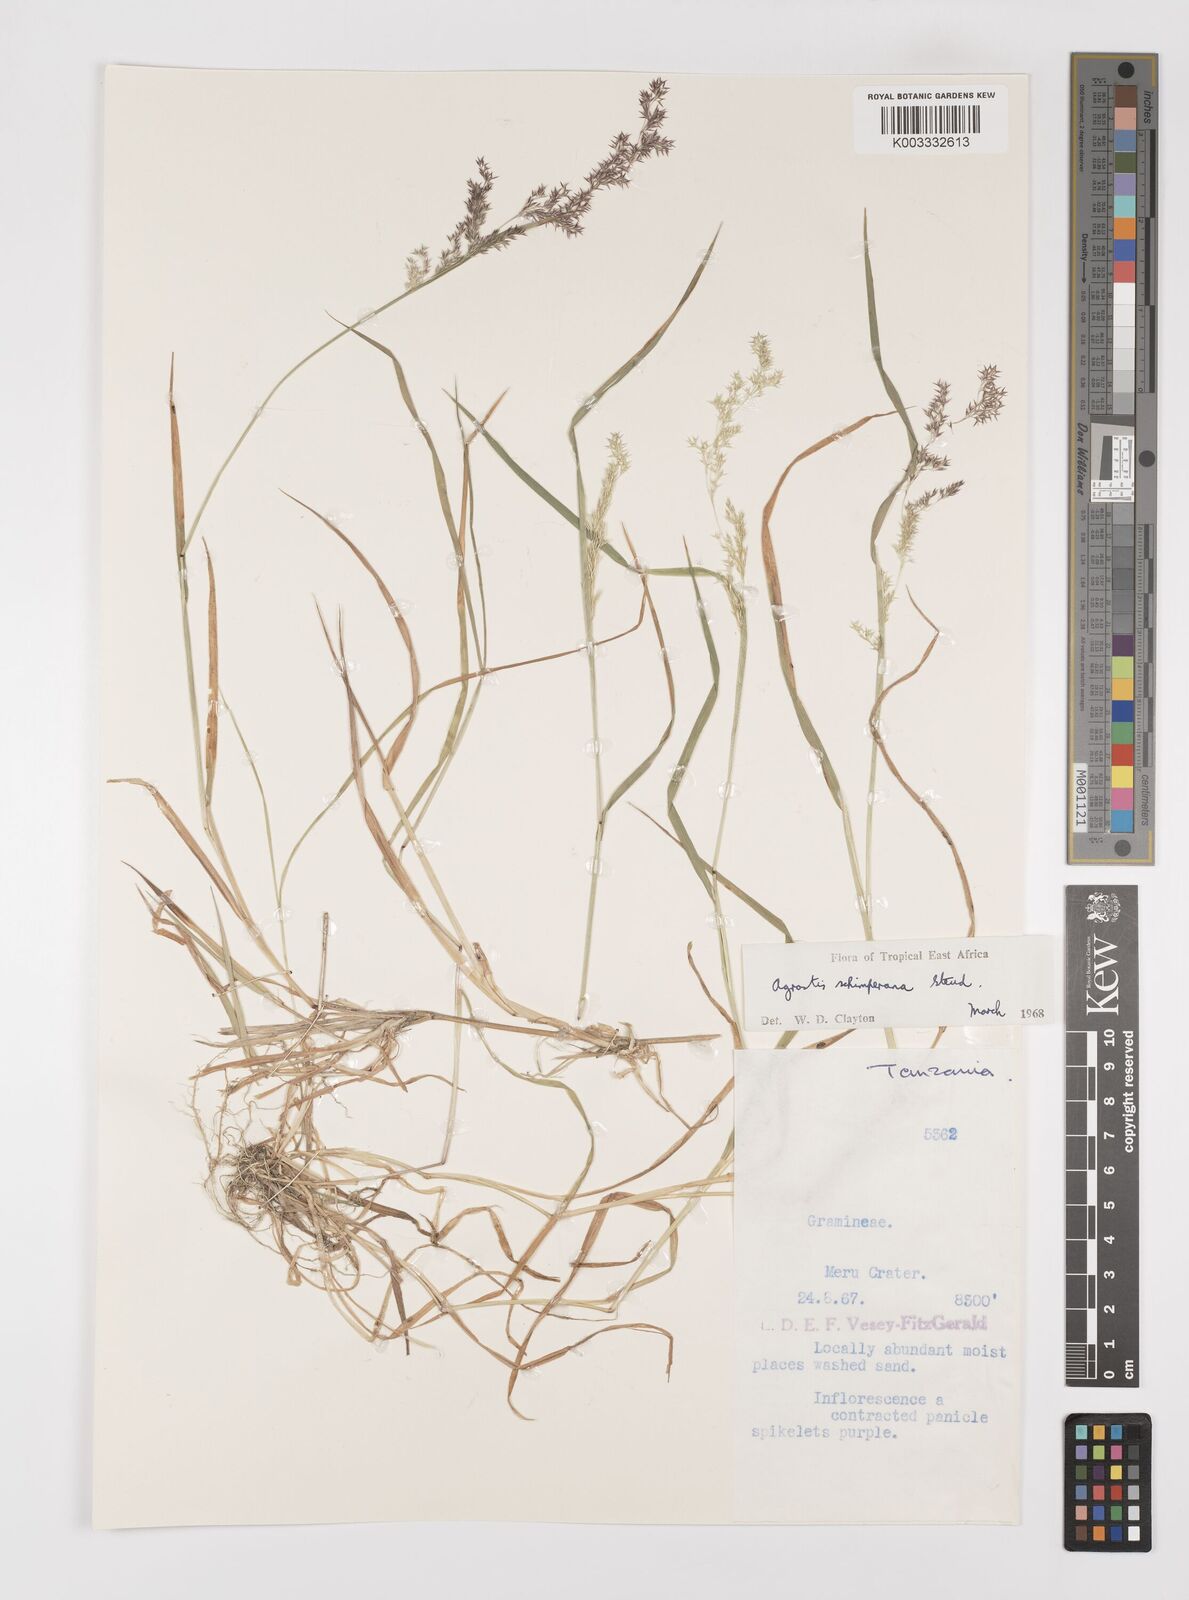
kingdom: Plantae
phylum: Tracheophyta
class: Liliopsida
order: Poales
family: Poaceae
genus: Polypogon
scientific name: Polypogon schimperianus
